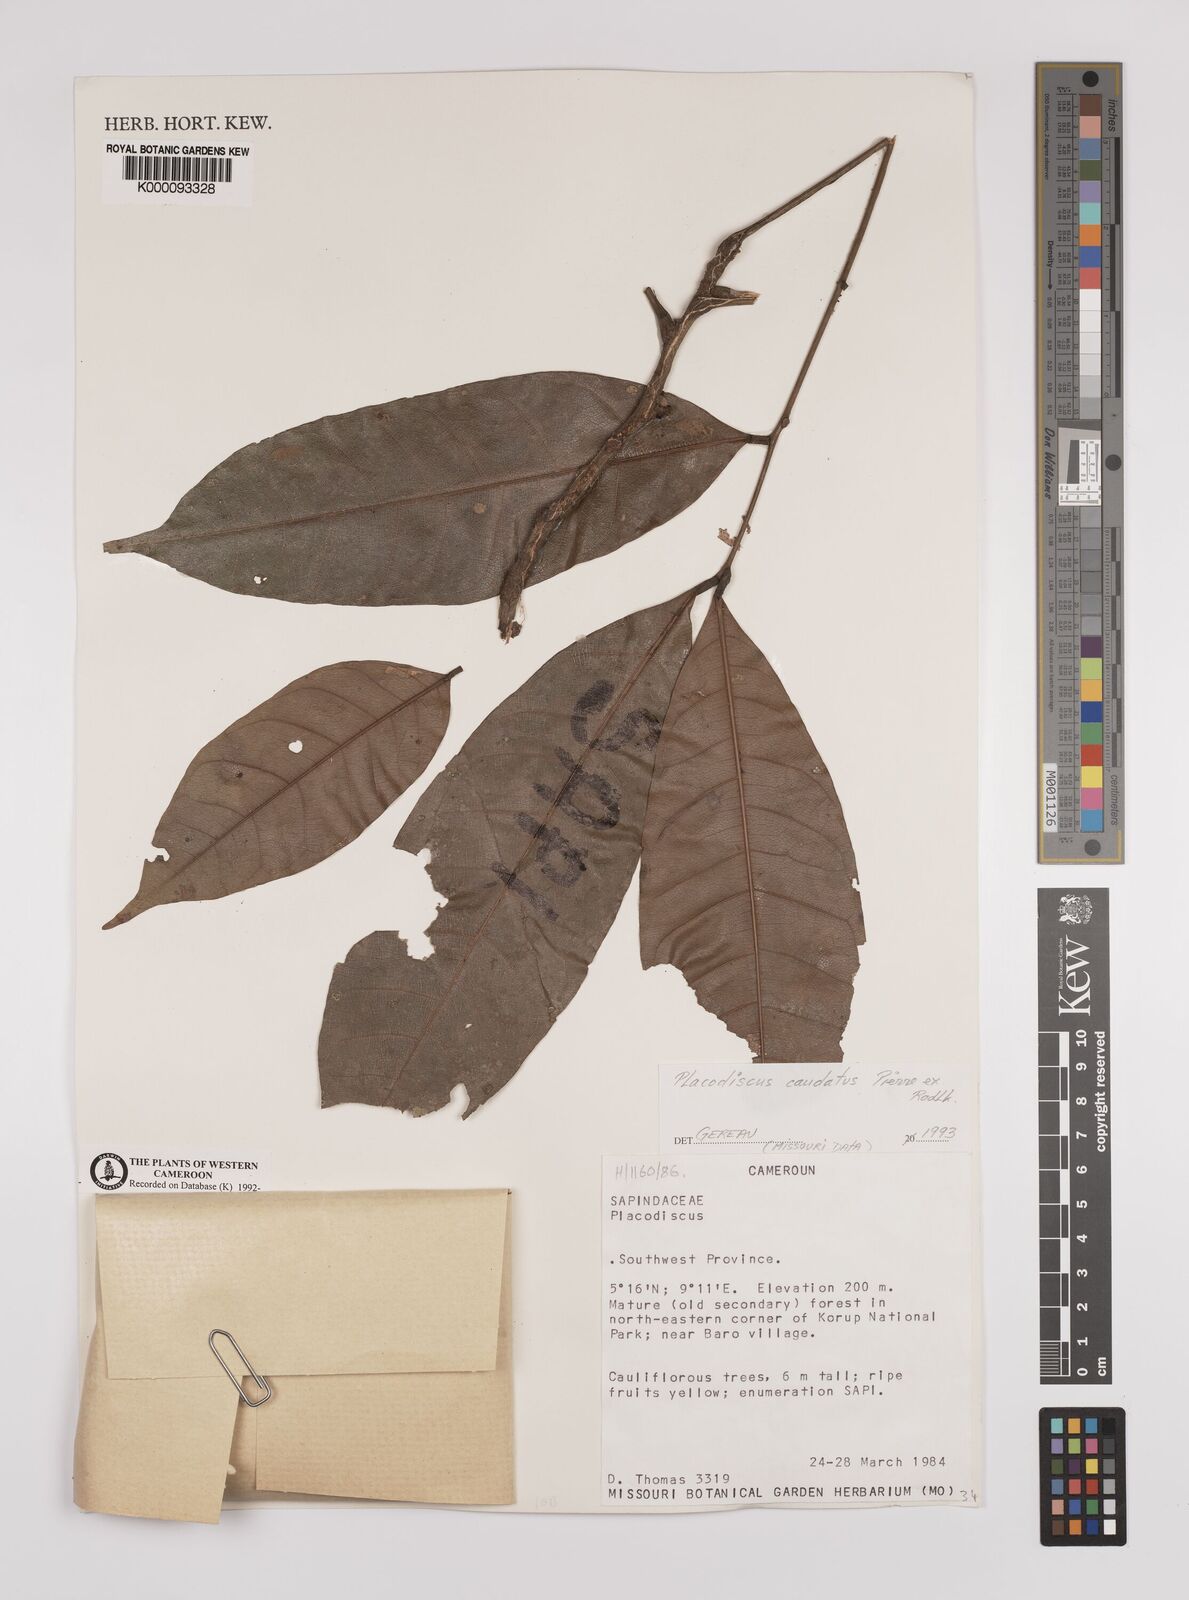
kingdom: Plantae
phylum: Tracheophyta
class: Magnoliopsida
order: Sapindales
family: Sapindaceae
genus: Placodiscus
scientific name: Placodiscus
